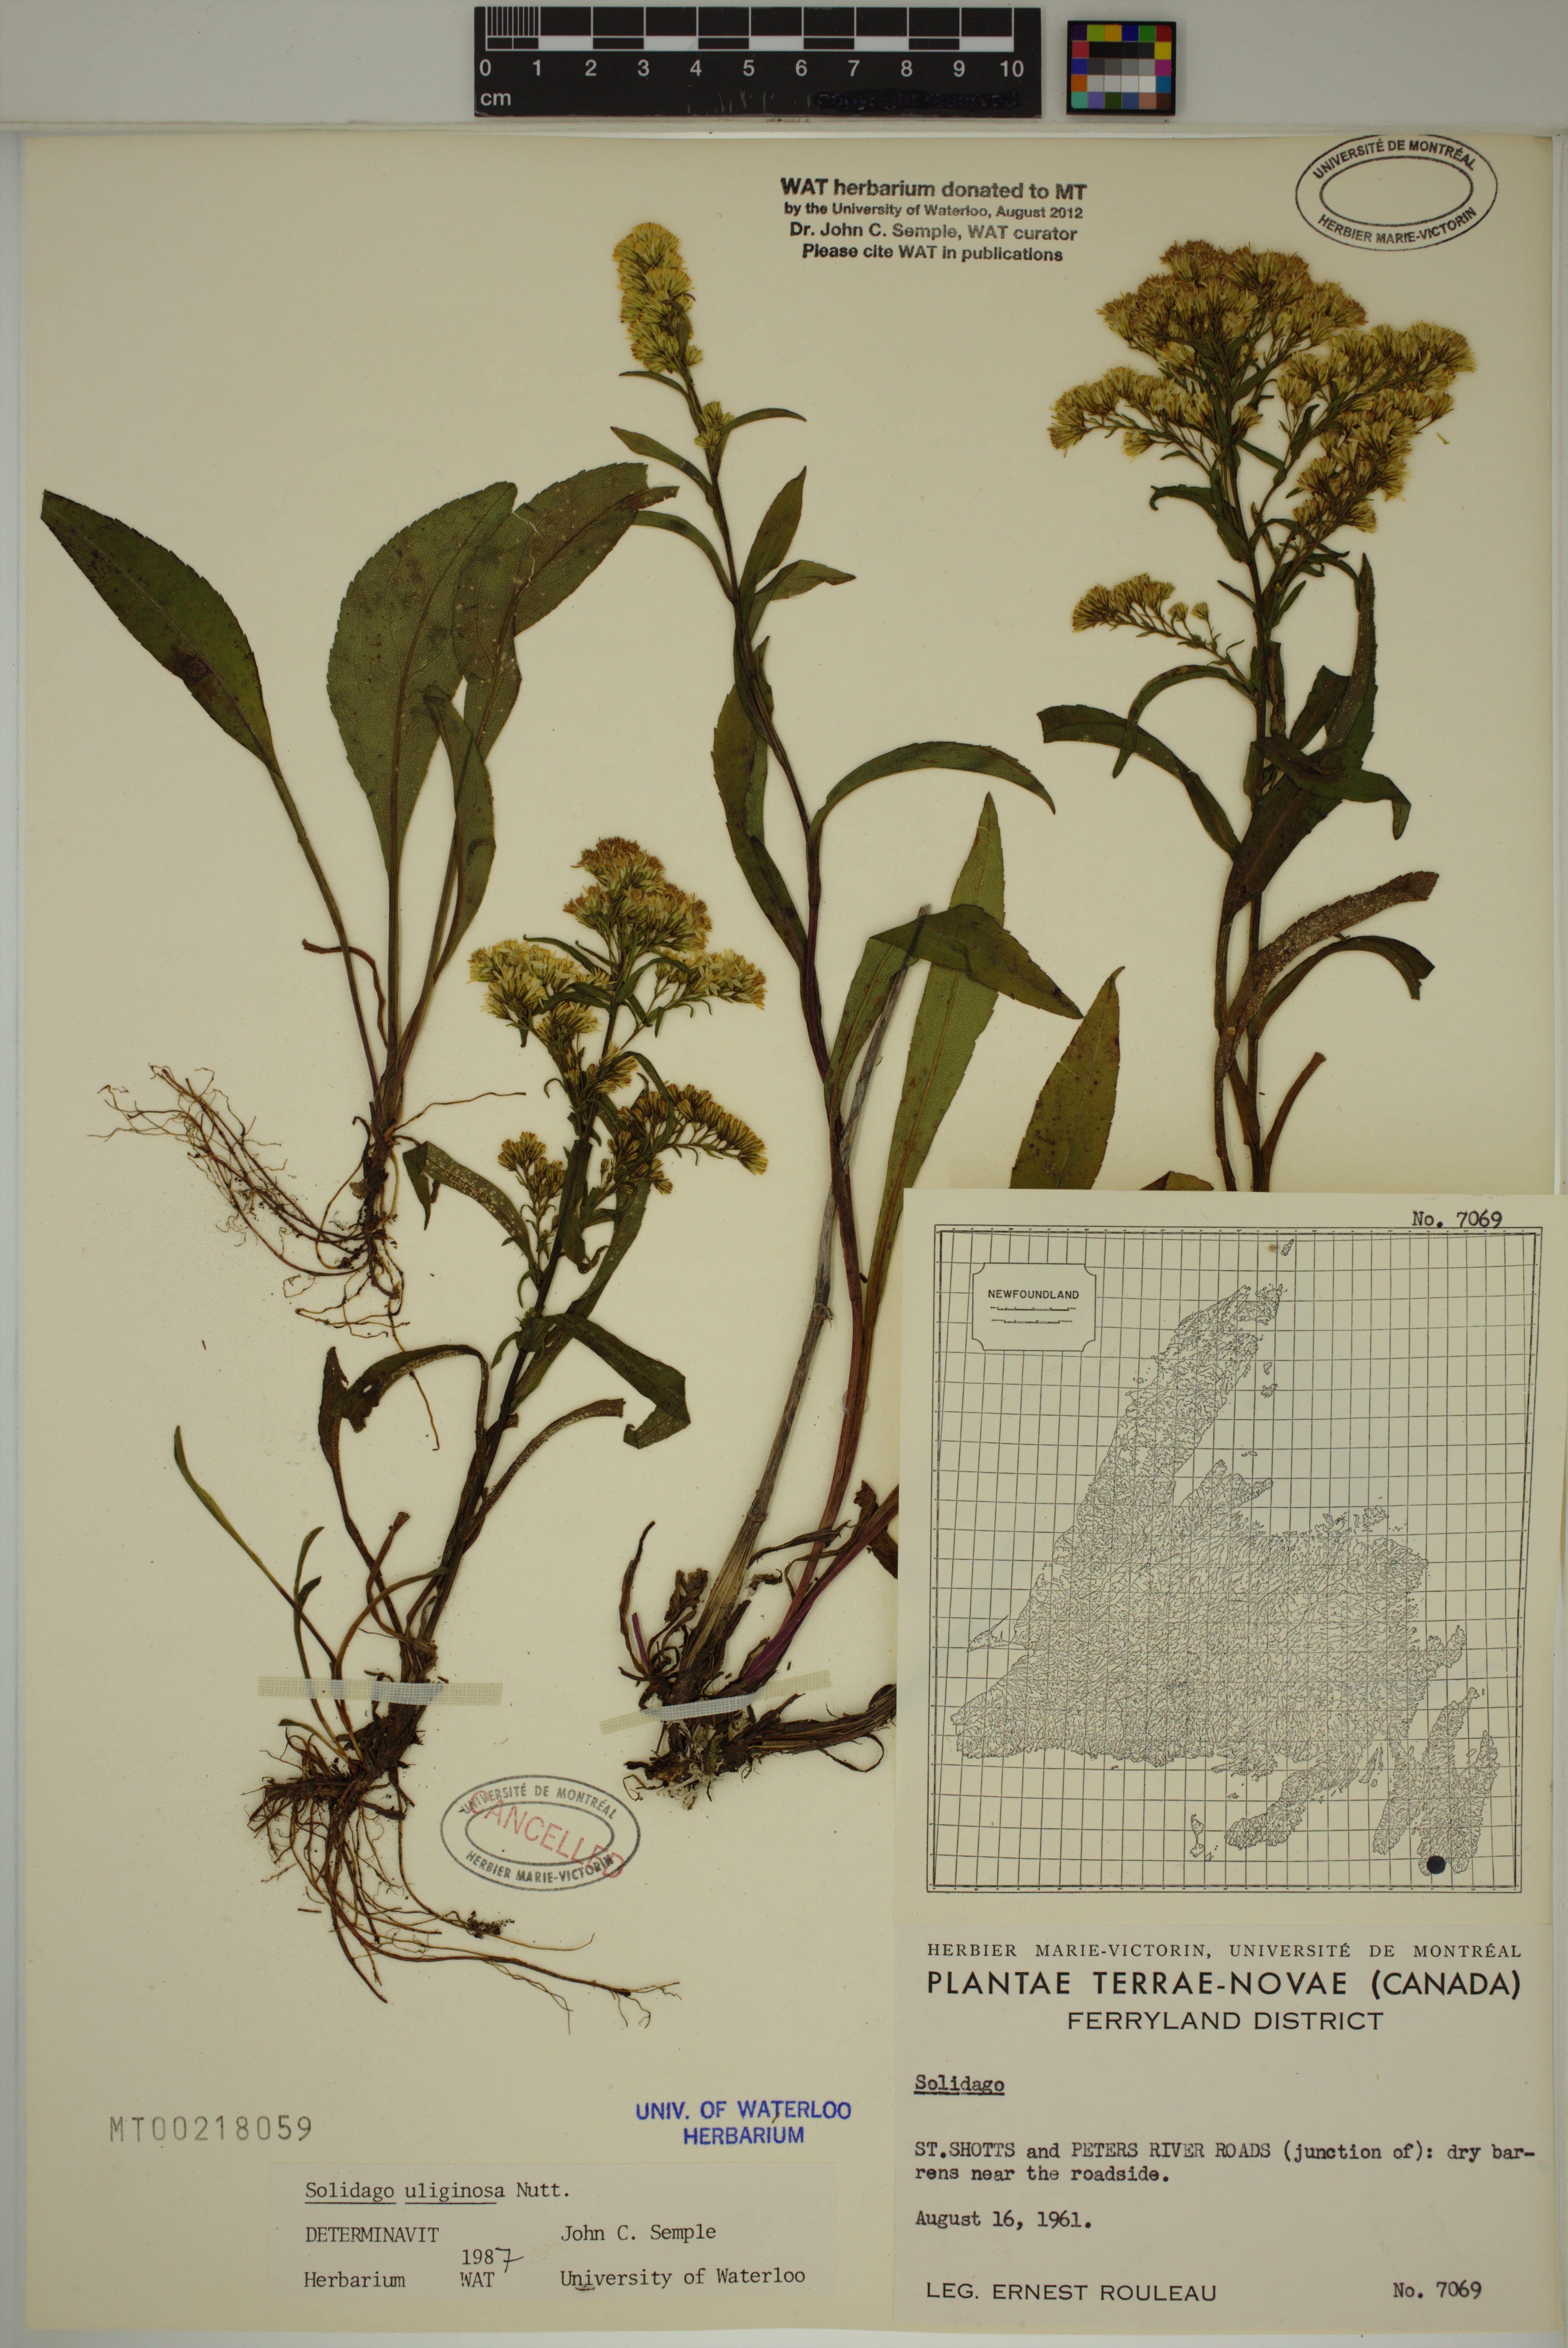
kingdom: Plantae
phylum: Tracheophyta
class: Magnoliopsida
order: Asterales
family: Asteraceae
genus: Solidago
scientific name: Solidago uliginosa
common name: Bog goldenrod
